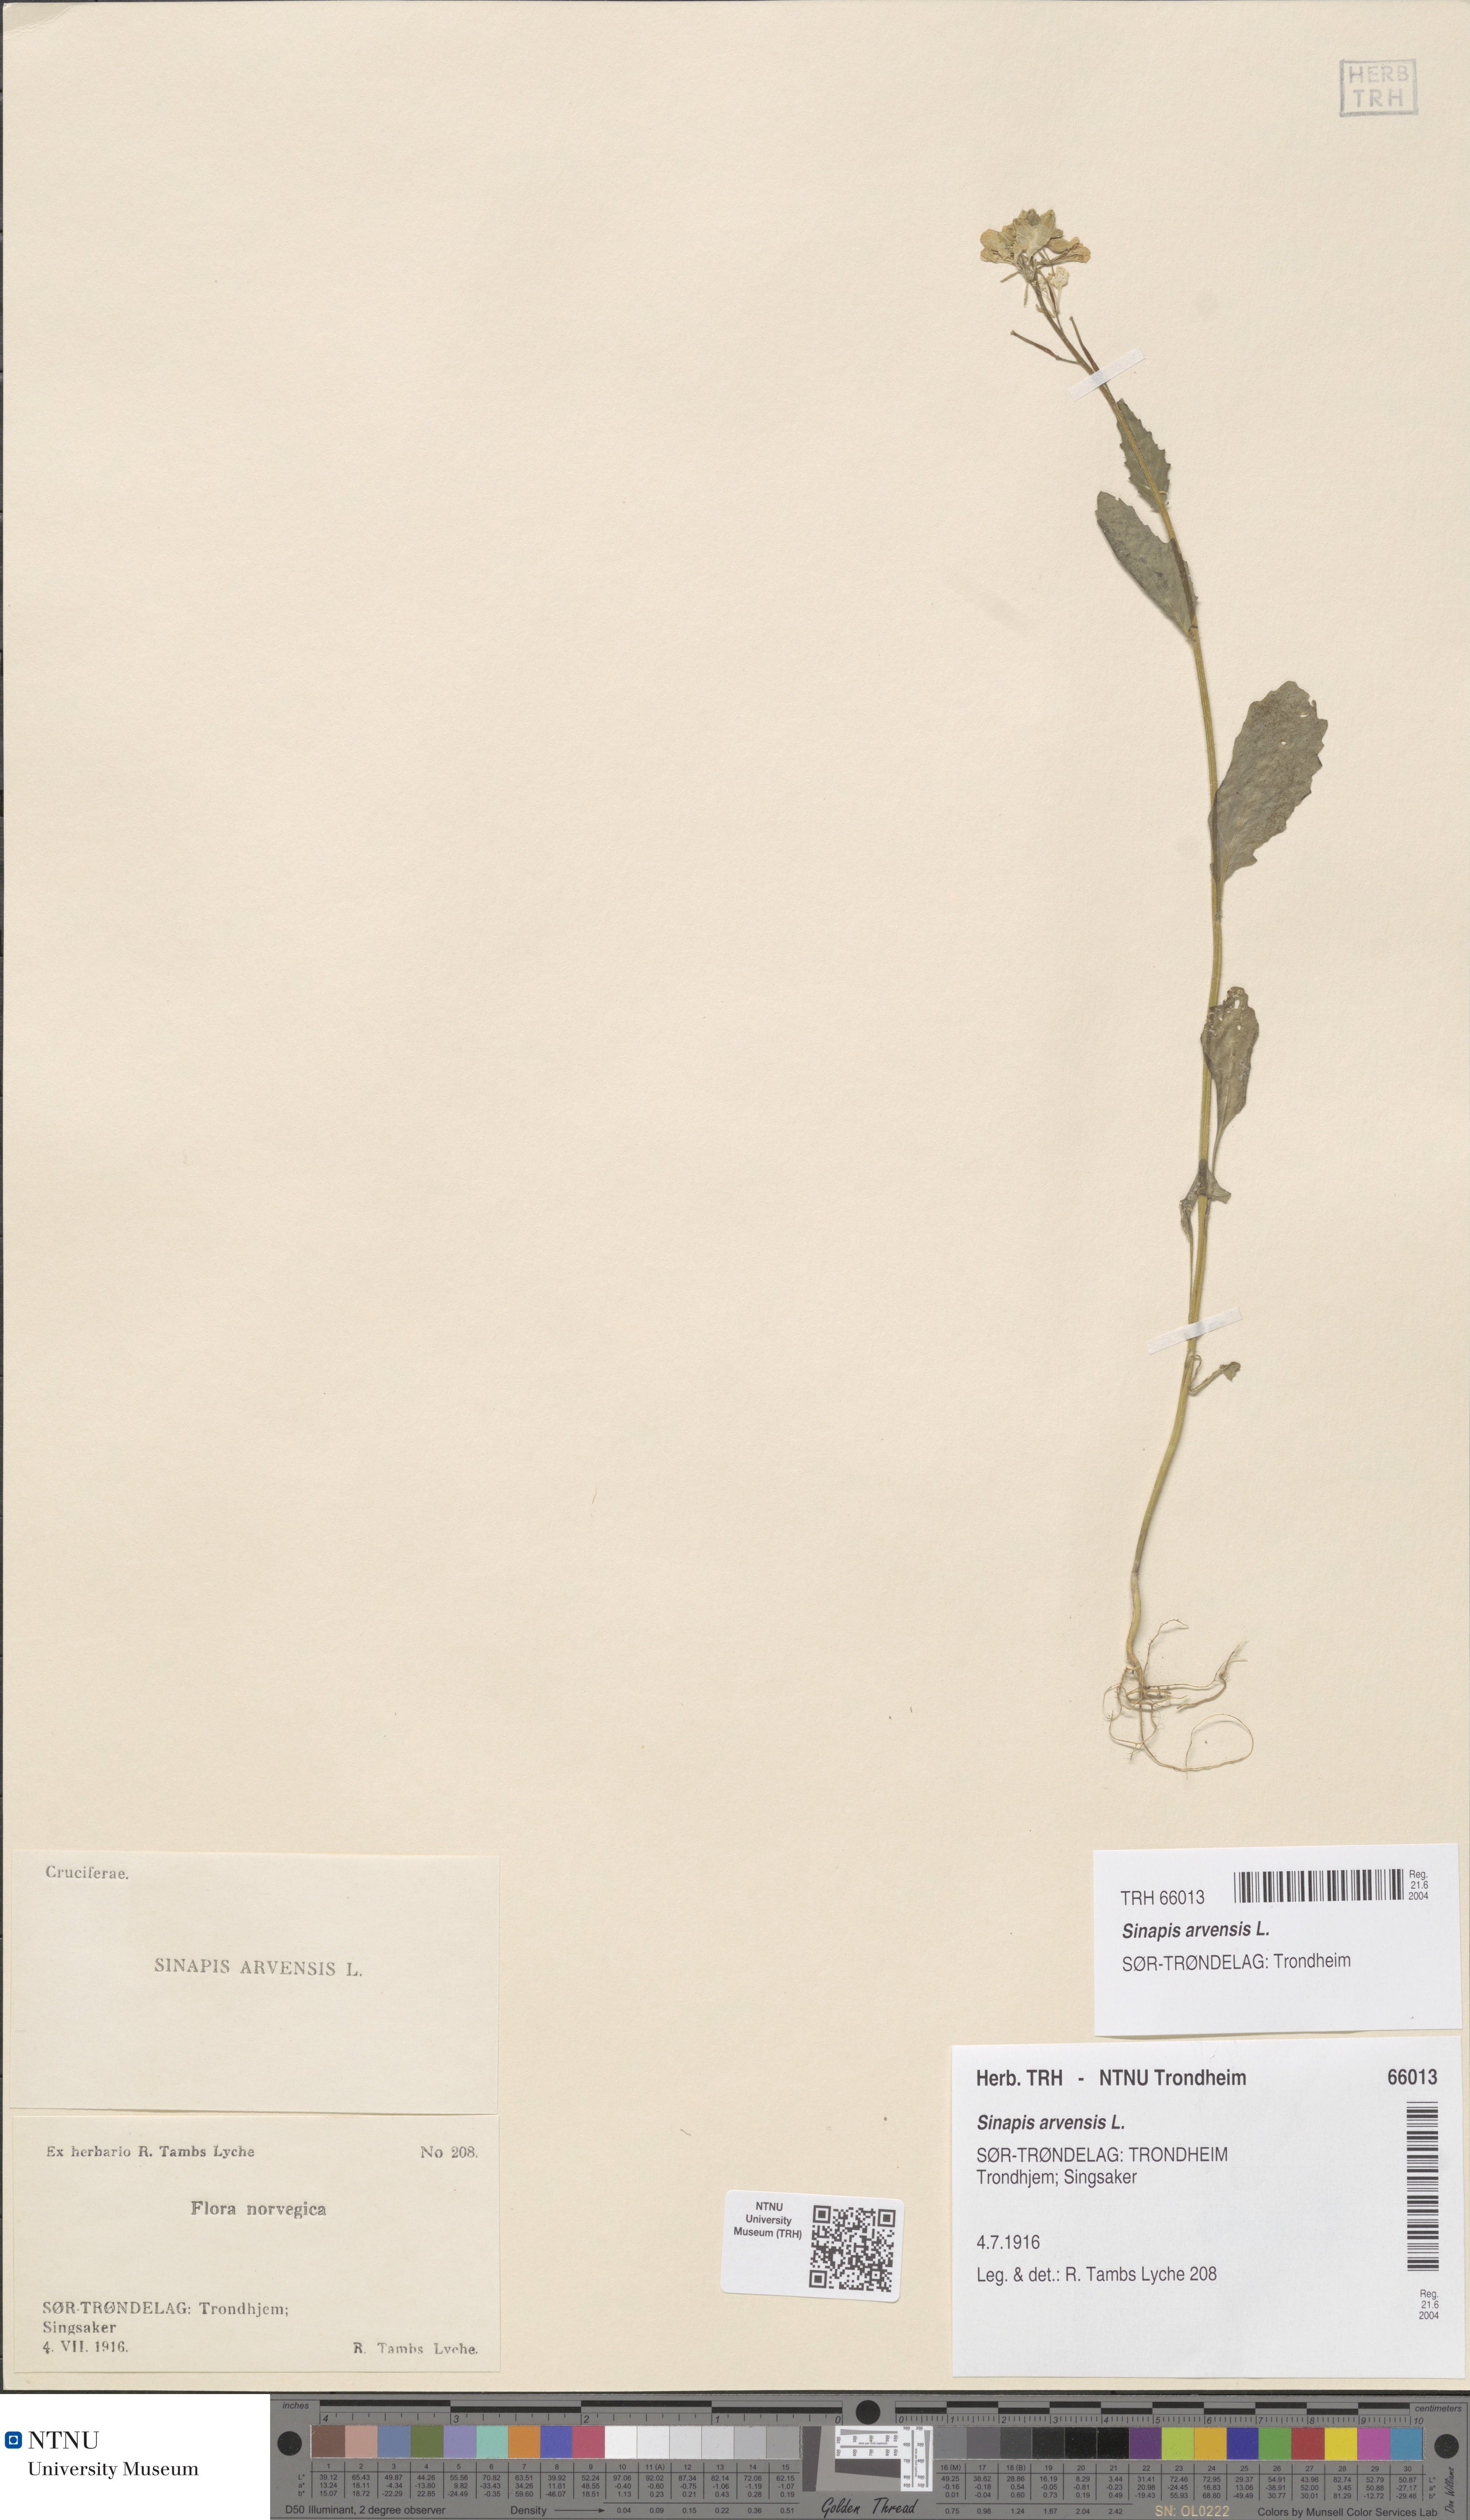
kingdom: Plantae
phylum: Tracheophyta
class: Magnoliopsida
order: Brassicales
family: Brassicaceae
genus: Sinapis
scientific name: Sinapis arvensis
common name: Charlock
